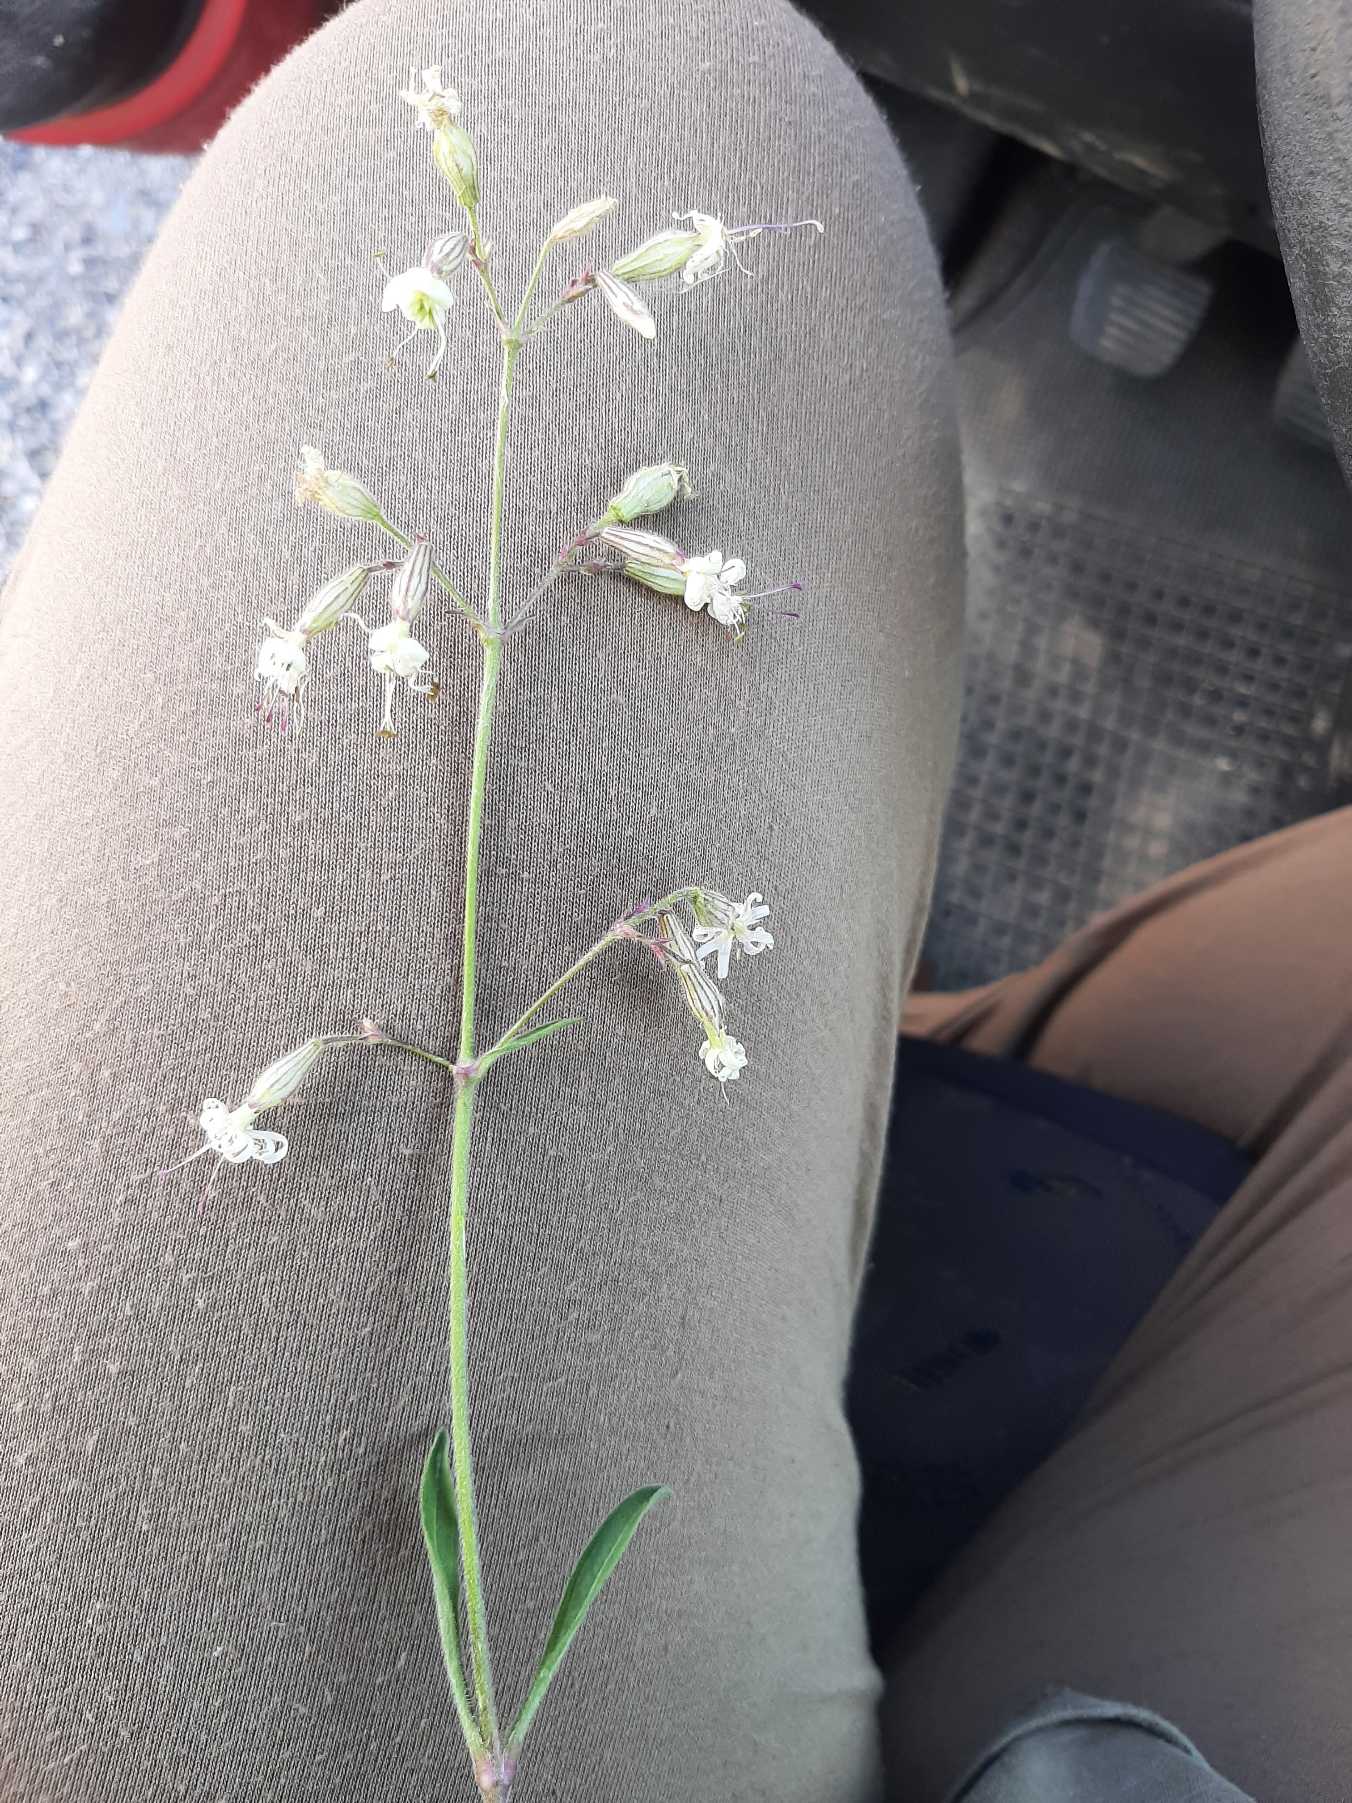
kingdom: Plantae
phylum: Tracheophyta
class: Magnoliopsida
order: Caryophyllales
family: Caryophyllaceae
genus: Silene
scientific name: Silene nutans
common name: Nikkende limurt
